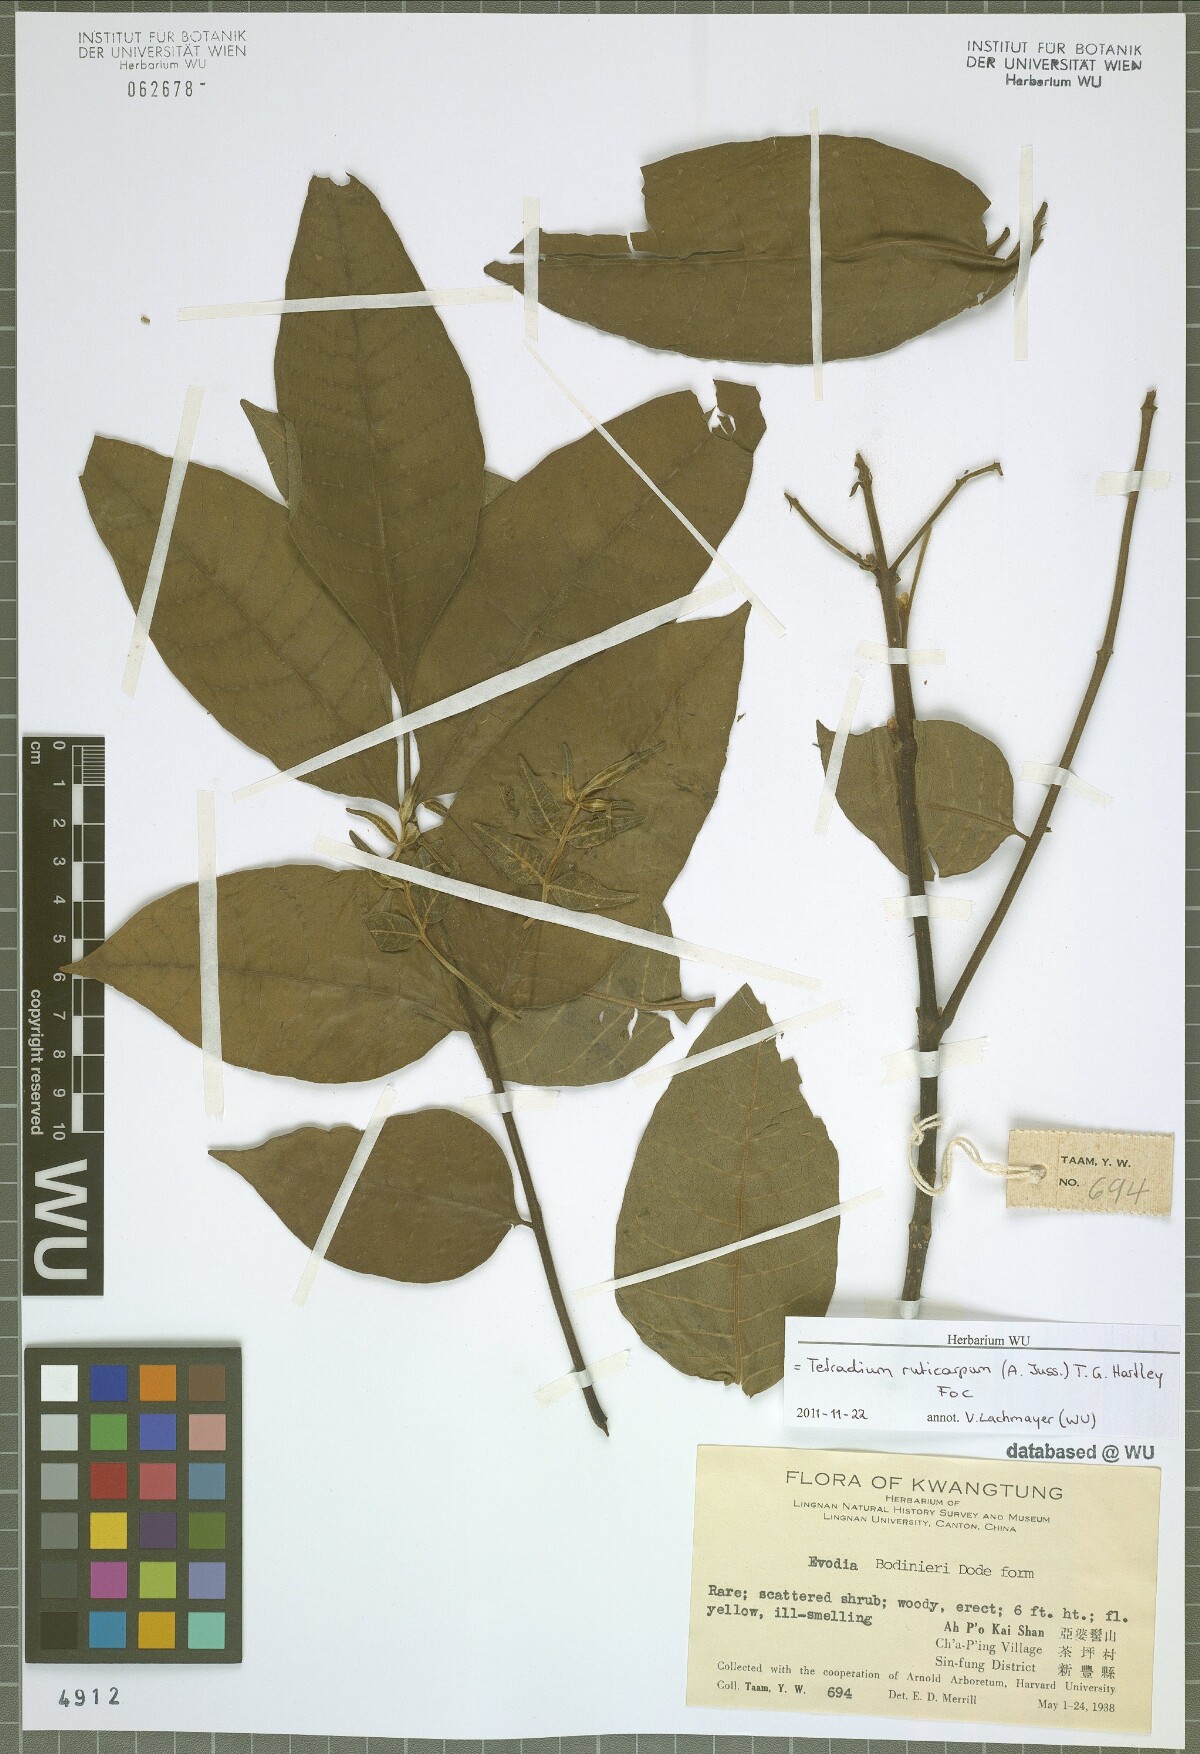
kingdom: Plantae
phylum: Tracheophyta
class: Magnoliopsida
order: Sapindales
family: Rutaceae
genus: Tetradium
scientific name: Tetradium ruticarpum
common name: Evodia
